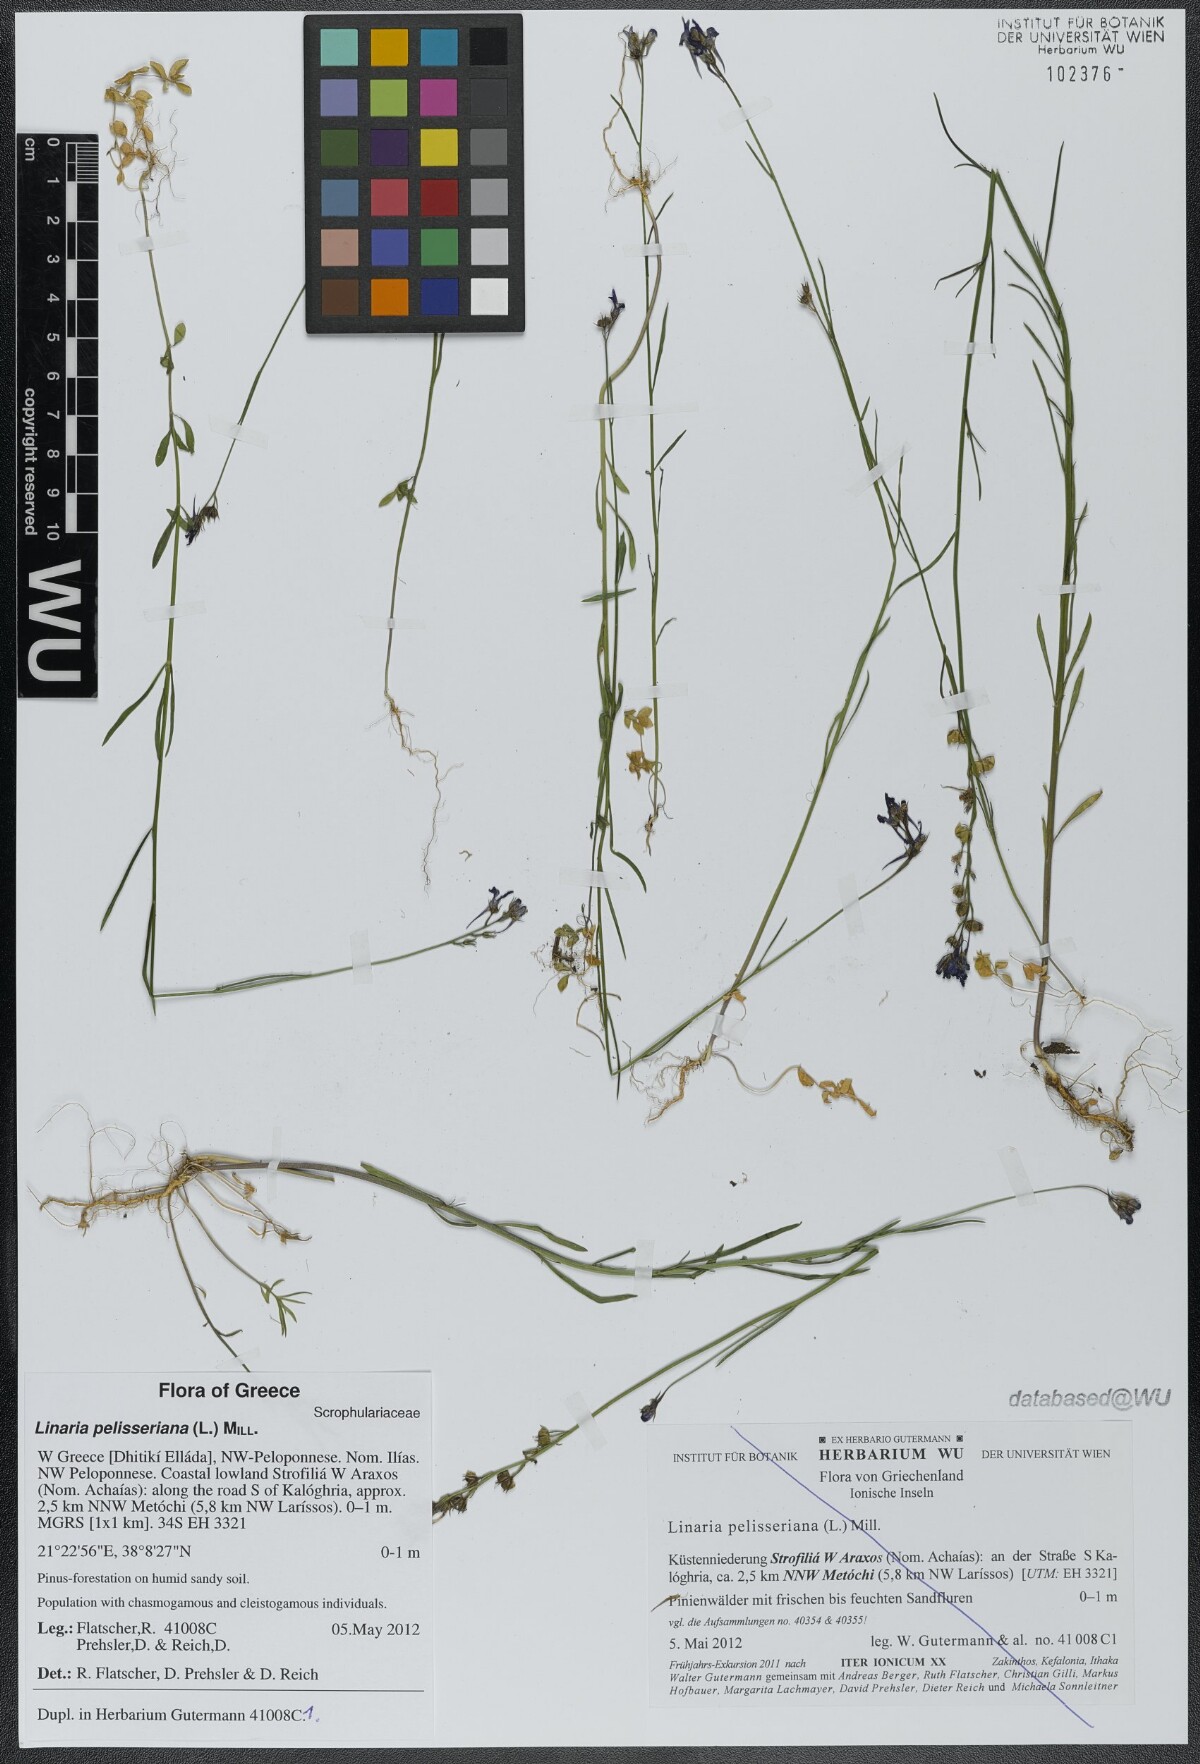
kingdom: Plantae
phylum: Tracheophyta
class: Magnoliopsida
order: Lamiales
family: Plantaginaceae
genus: Linaria
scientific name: Linaria pelisseriana
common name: Jersey toadflax
